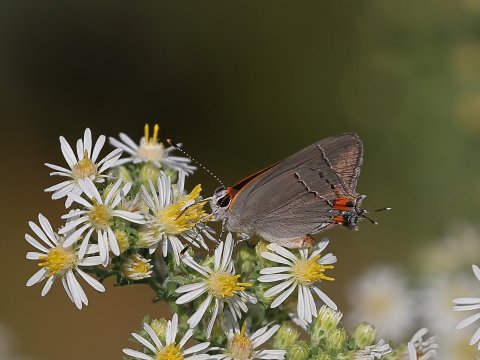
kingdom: Animalia
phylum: Arthropoda
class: Insecta
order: Lepidoptera
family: Lycaenidae
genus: Strymon
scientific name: Strymon melinus
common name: Gray Hairstreak
